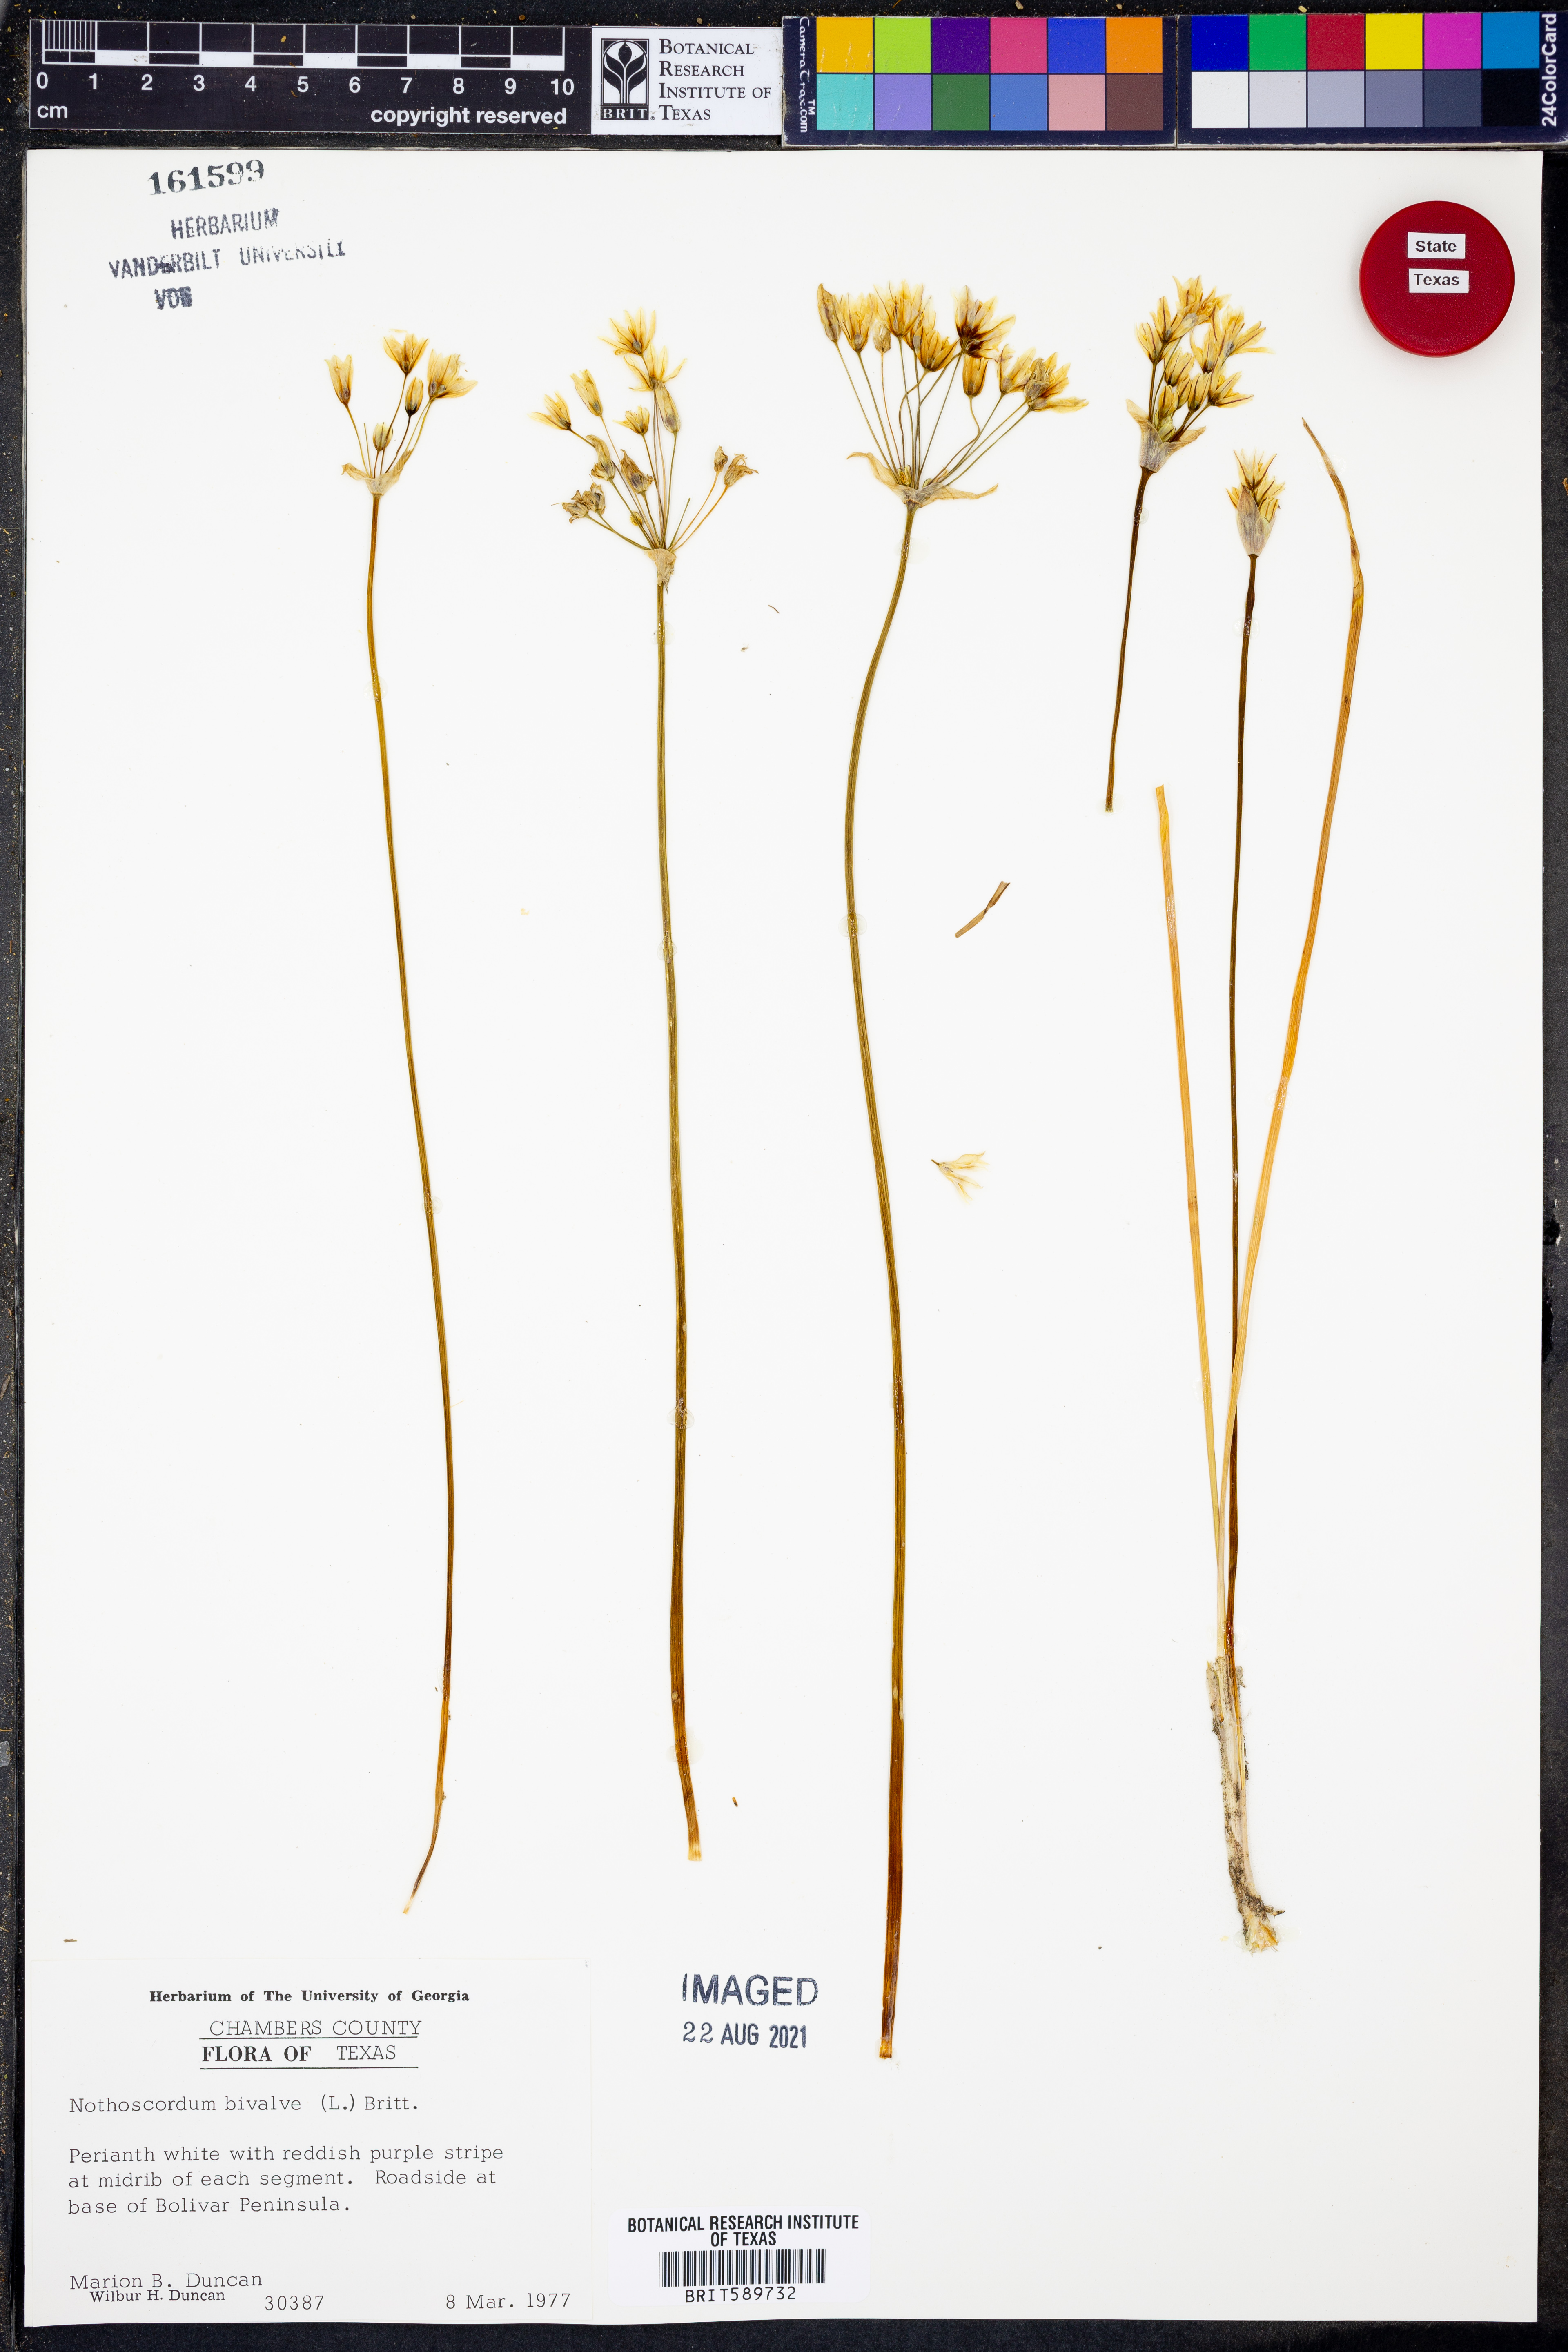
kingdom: Plantae
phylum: Tracheophyta
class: Liliopsida
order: Asparagales
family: Amaryllidaceae
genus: Nothoscordum
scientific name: Nothoscordum bivalve
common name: Crow-poison
